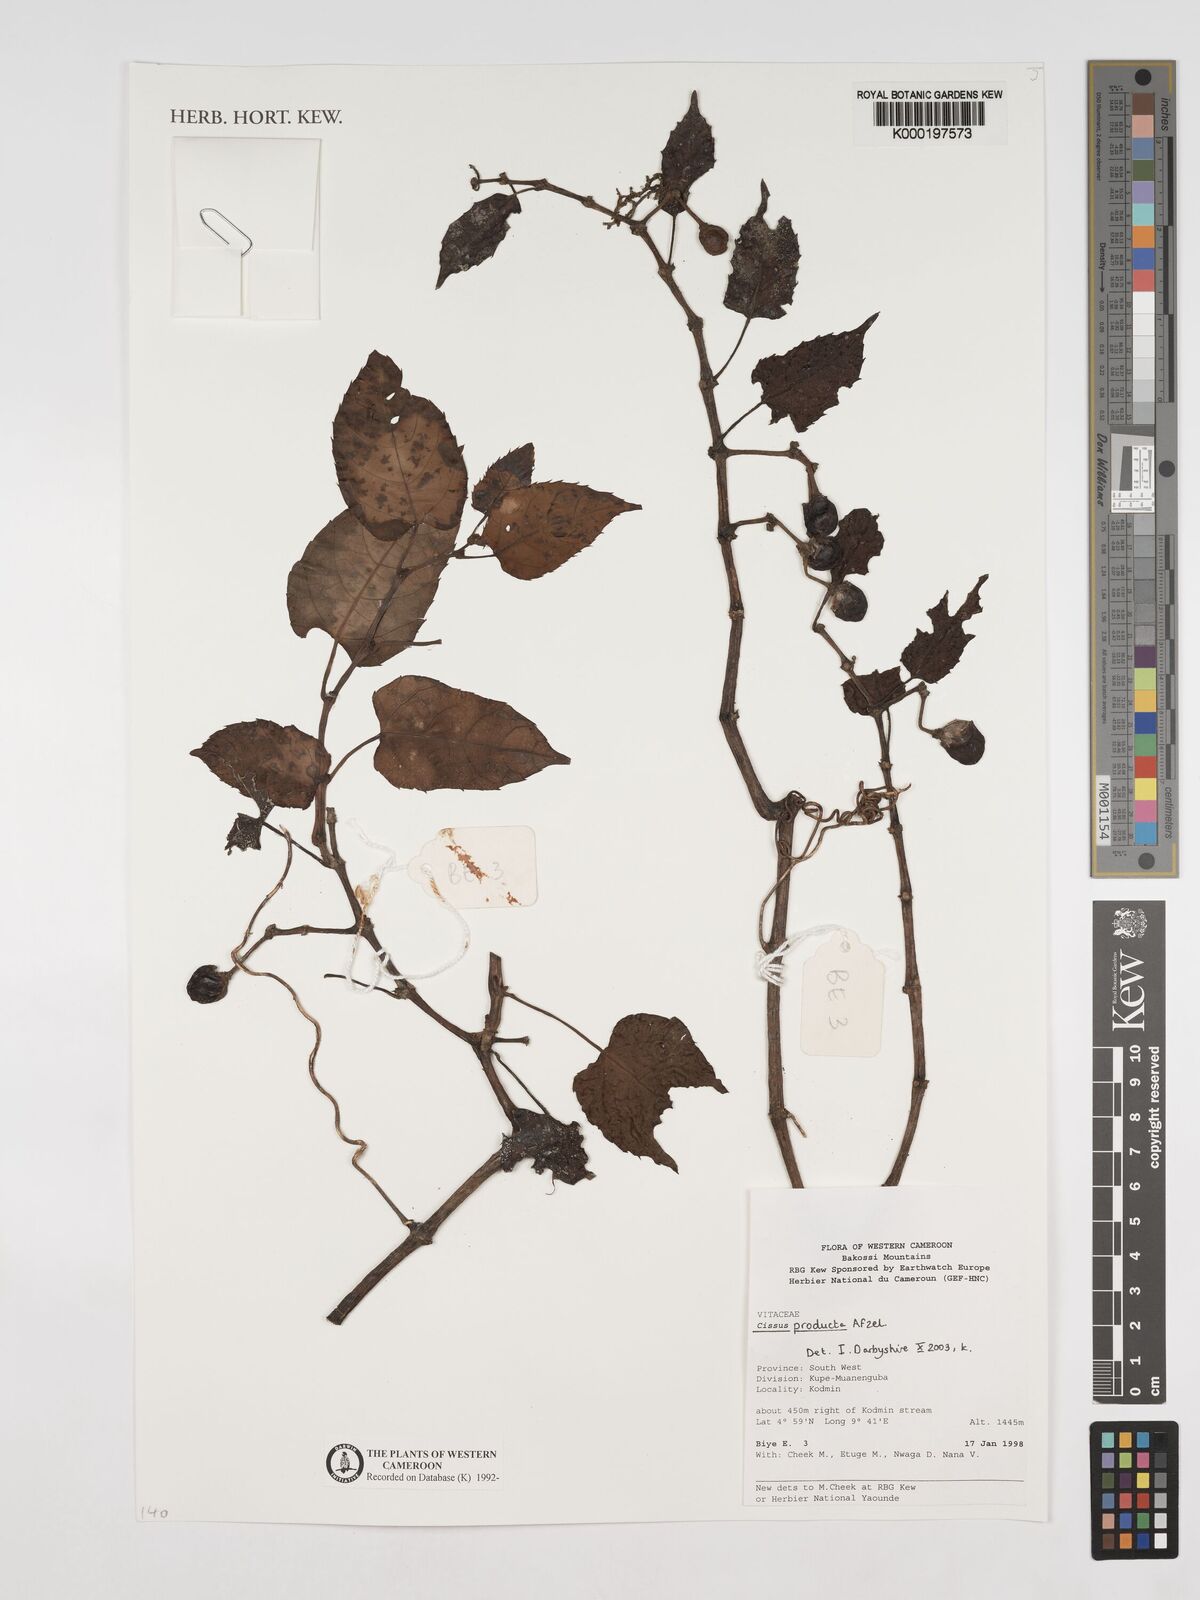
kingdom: Plantae
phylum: Tracheophyta
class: Magnoliopsida
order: Vitales
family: Vitaceae
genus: Cissus
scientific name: Cissus producta
